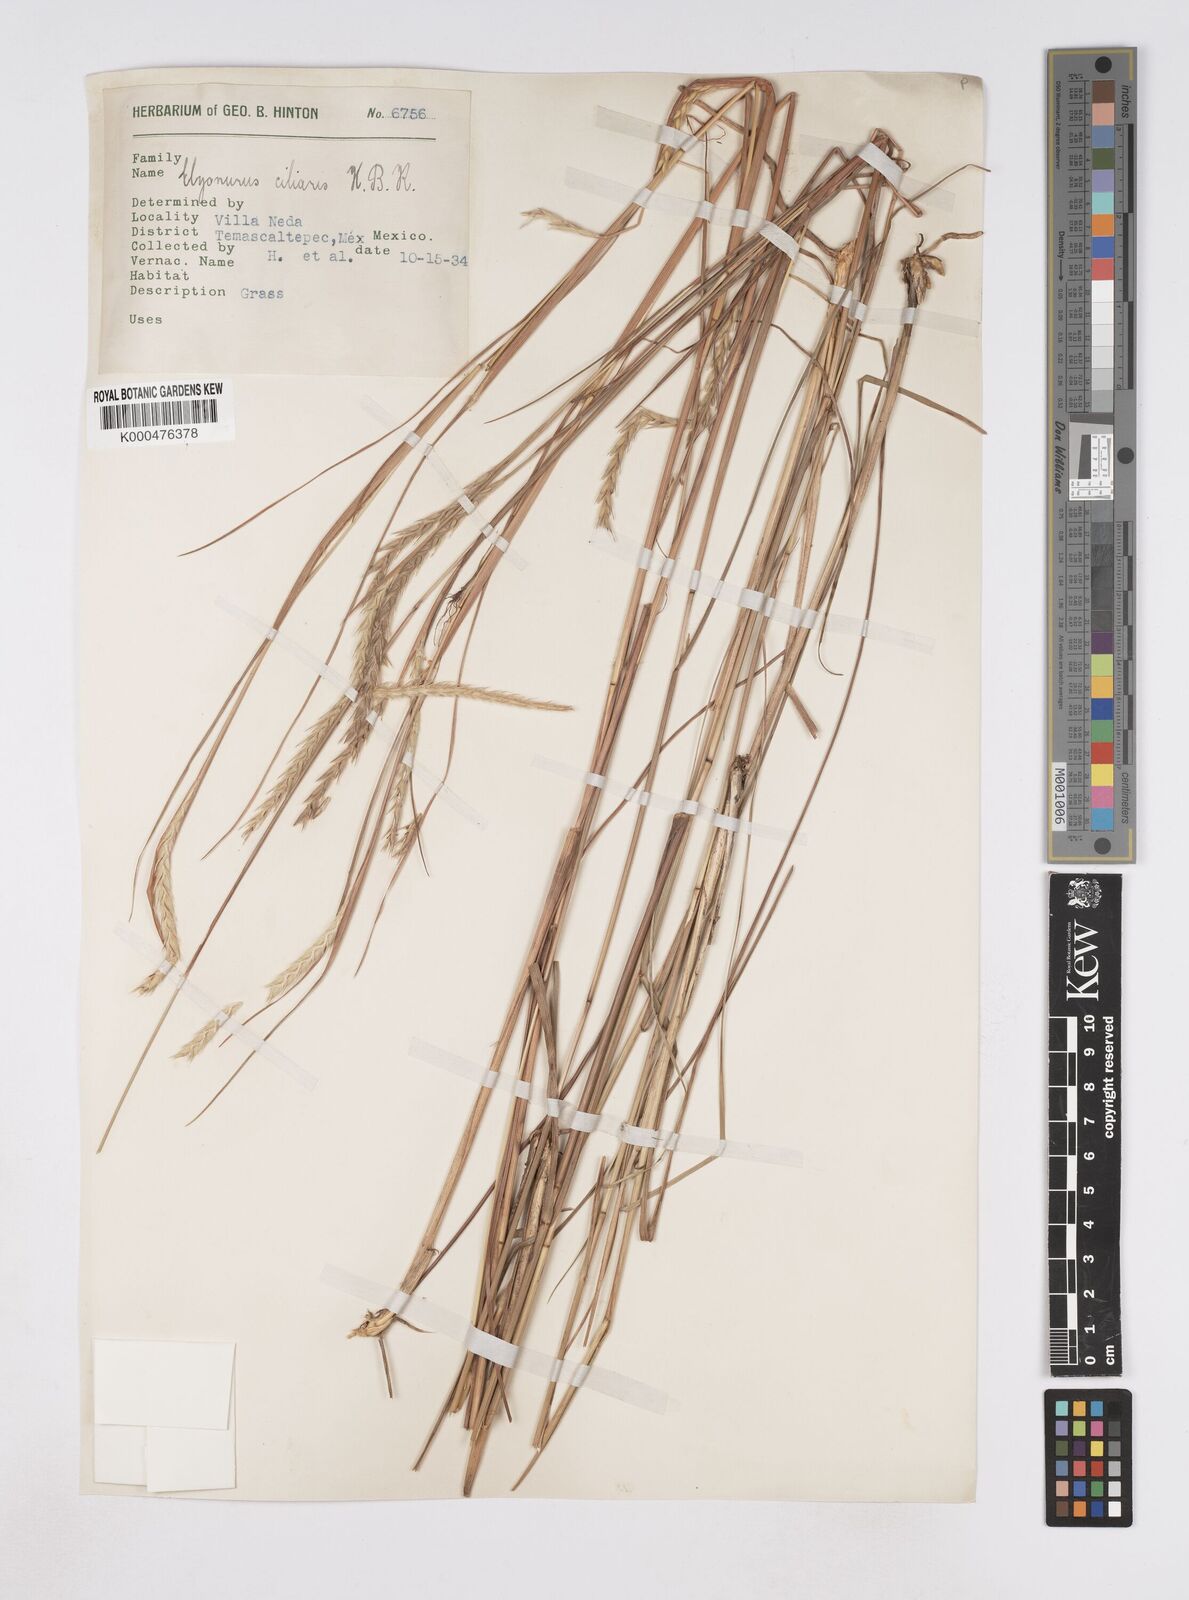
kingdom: Plantae
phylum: Tracheophyta
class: Liliopsida
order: Poales
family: Poaceae
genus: Elionurus
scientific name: Elionurus ciliaris
